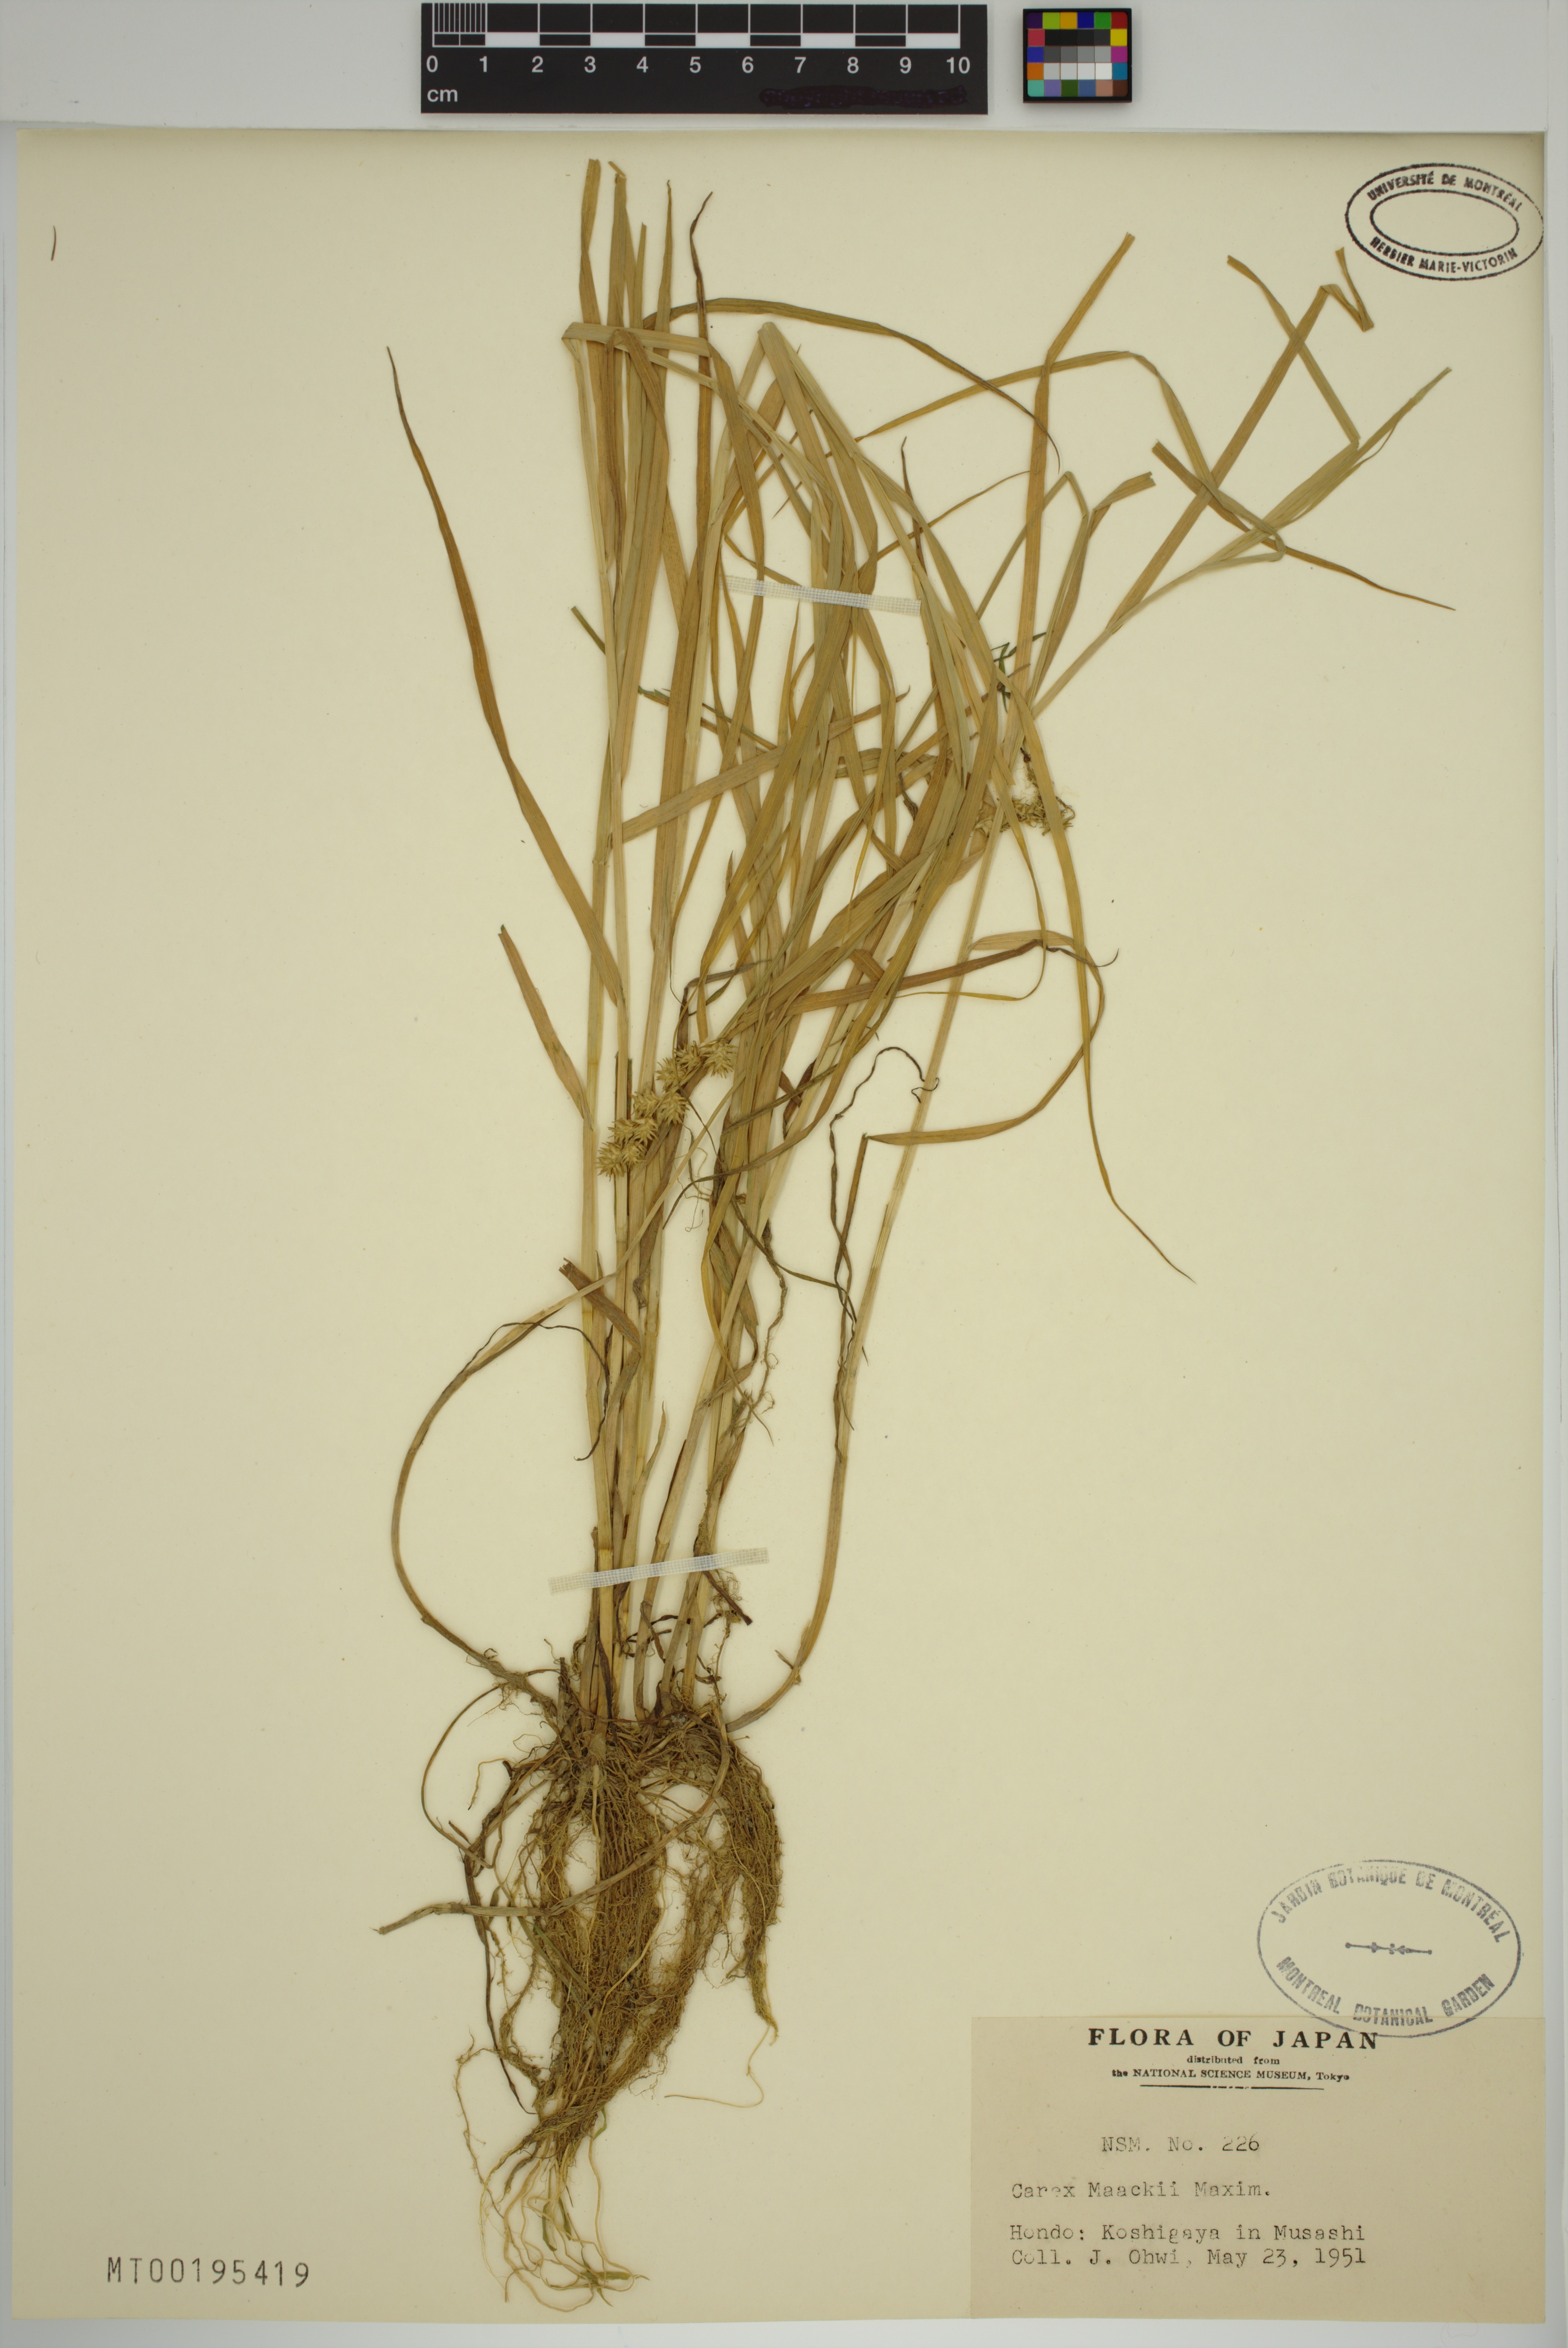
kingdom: Plantae
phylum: Tracheophyta
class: Liliopsida
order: Poales
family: Cyperaceae
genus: Carex
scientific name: Carex maackii
